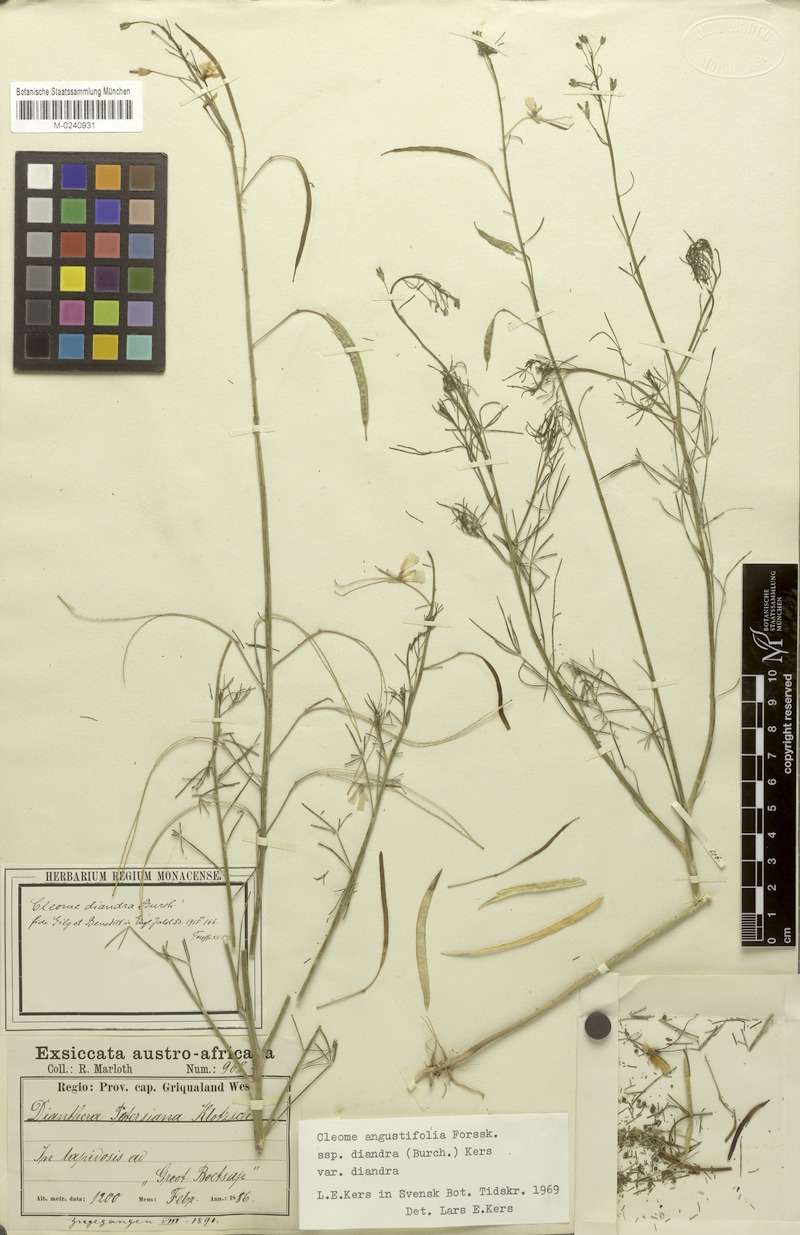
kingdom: Plantae
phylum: Tracheophyta
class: Magnoliopsida
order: Brassicales
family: Cleomaceae
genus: Coalisina
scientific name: Coalisina angustifolia
